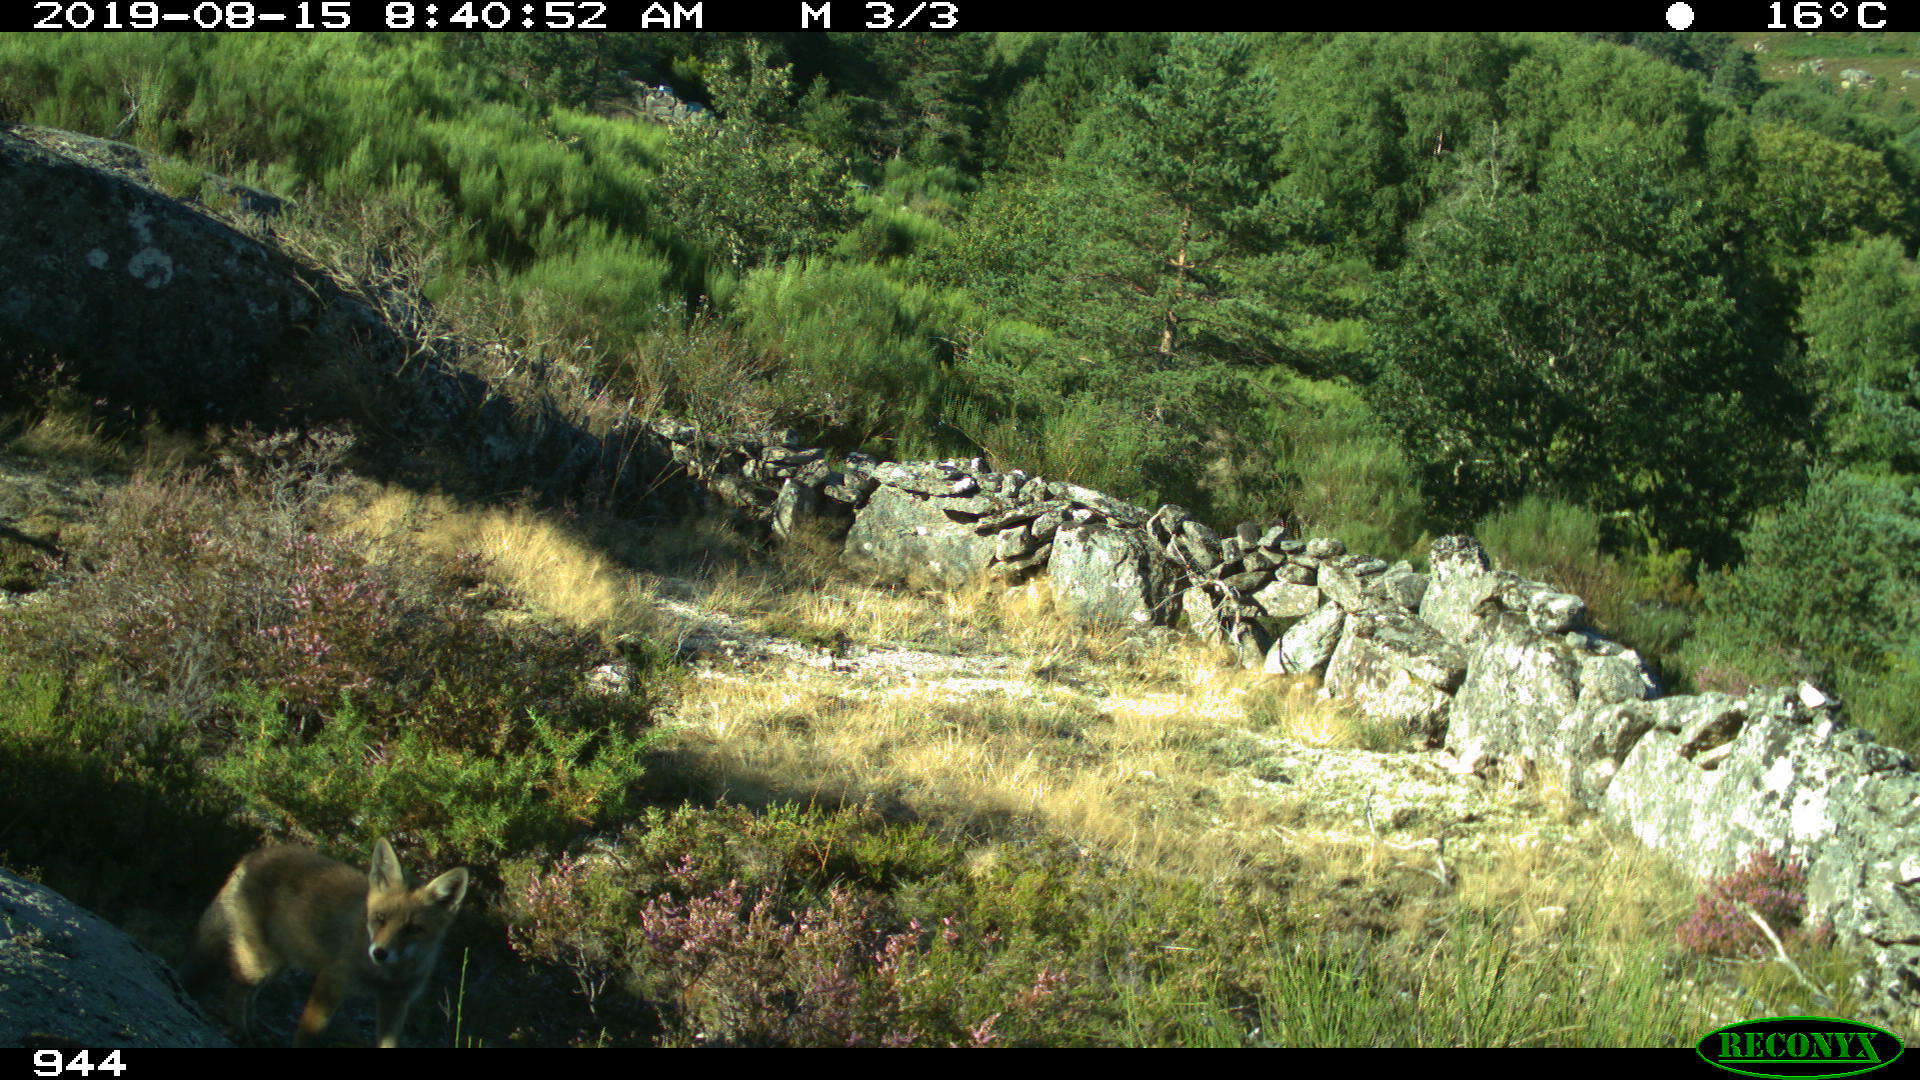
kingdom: Animalia
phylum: Chordata
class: Mammalia
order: Carnivora
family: Canidae
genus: Vulpes
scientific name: Vulpes vulpes
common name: Red fox
